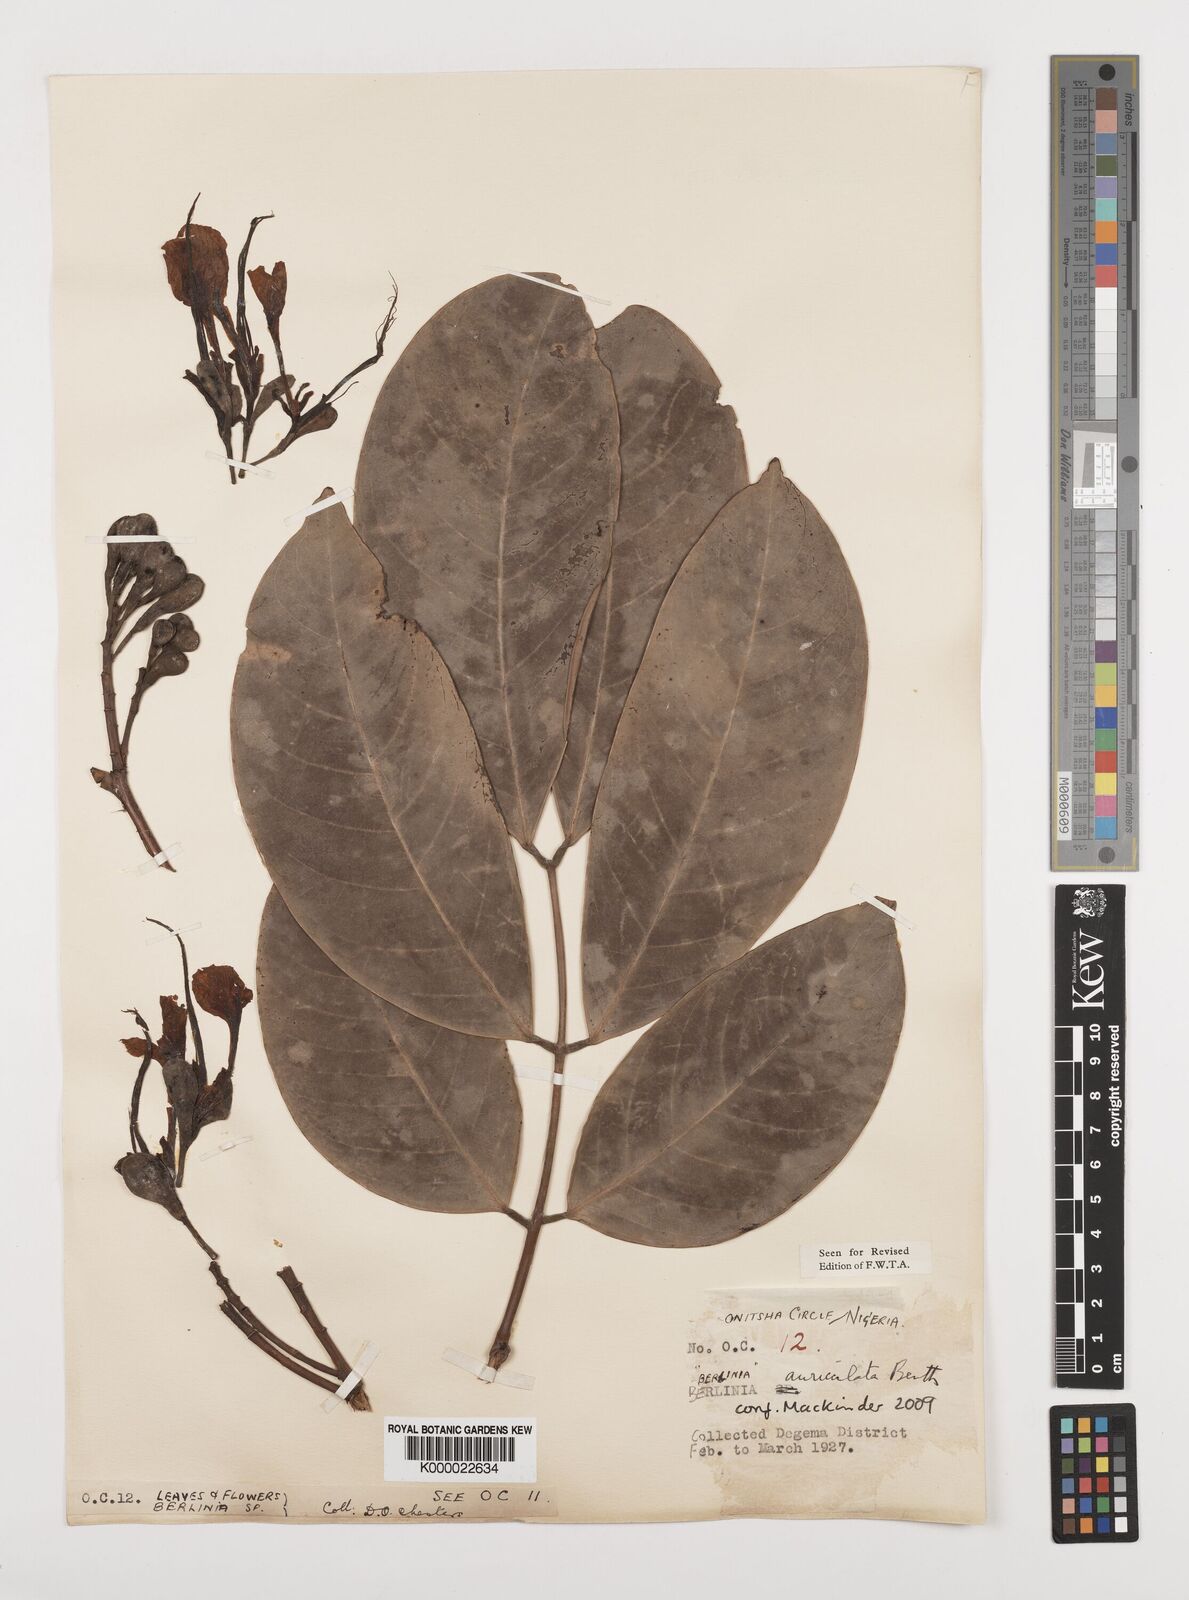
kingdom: Plantae
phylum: Tracheophyta
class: Magnoliopsida
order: Fabales
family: Fabaceae
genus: Berlinia
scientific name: Berlinia auriculata
